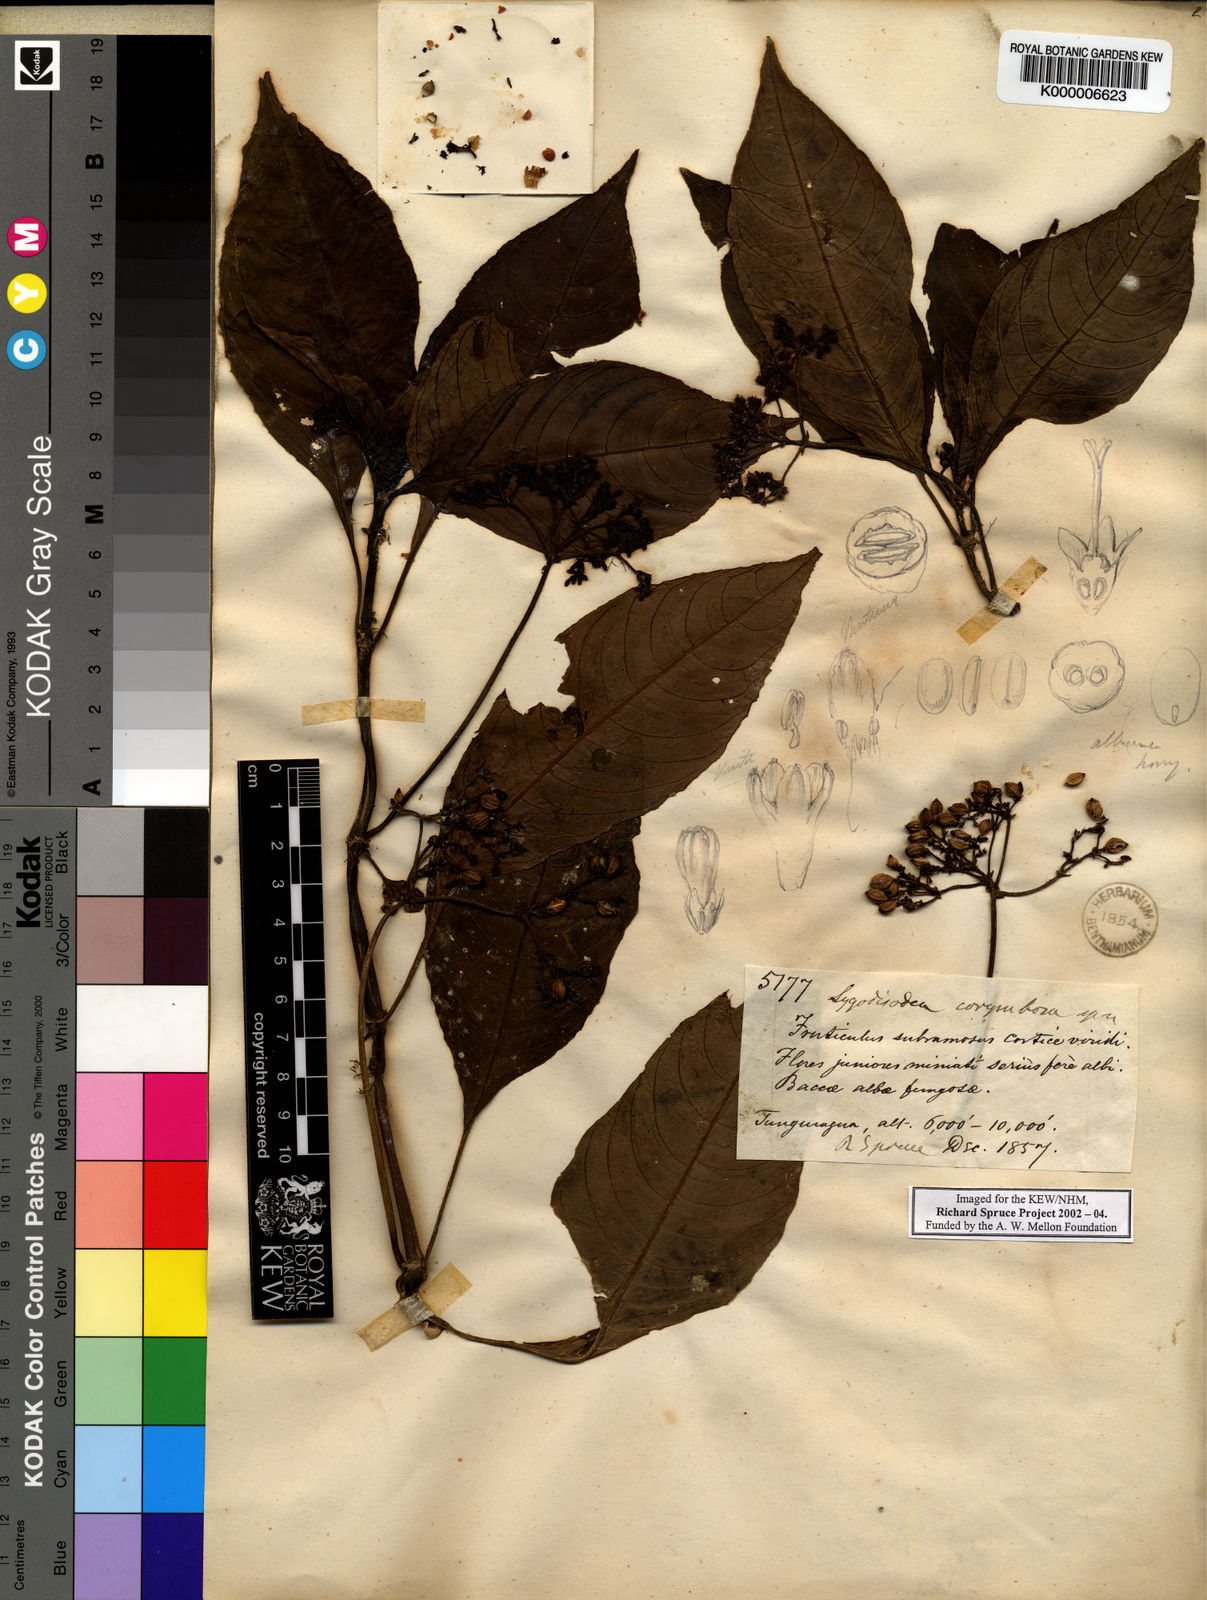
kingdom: Plantae
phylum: Tracheophyta
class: Magnoliopsida
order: Gentianales
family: Rubiaceae
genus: Notopleura
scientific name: Notopleura
